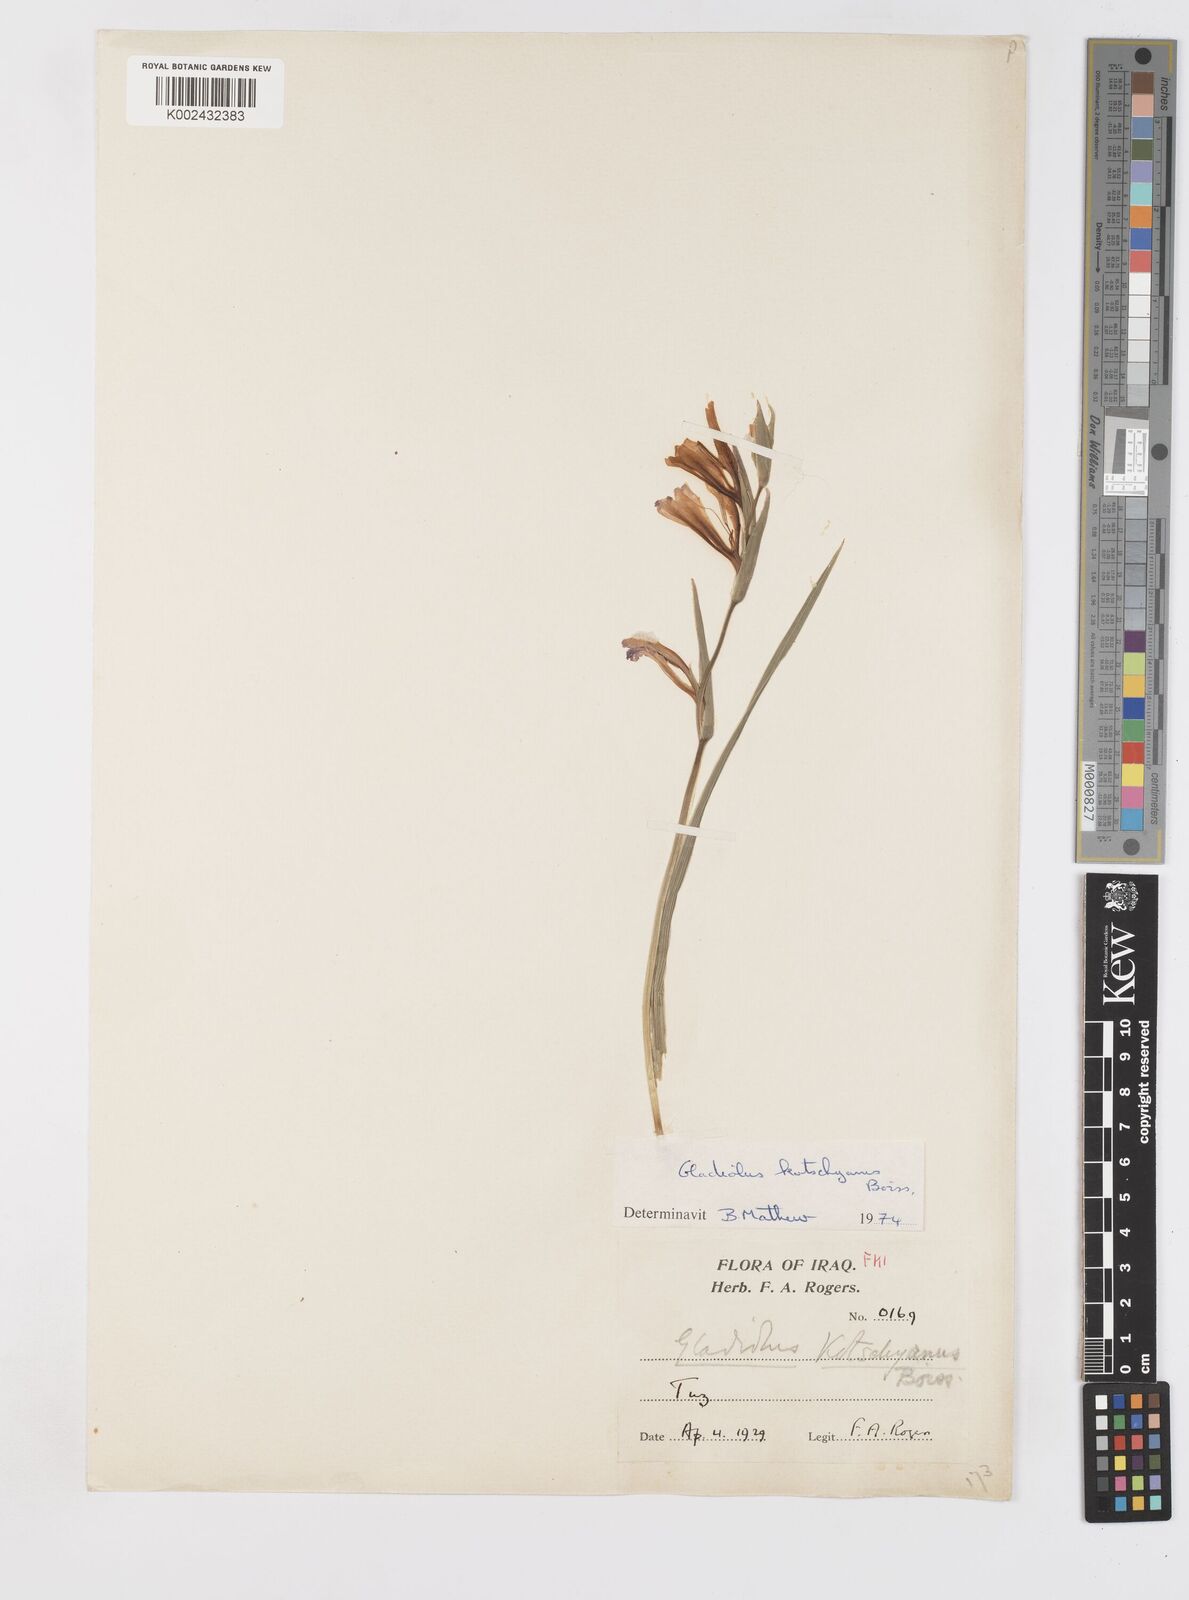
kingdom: Plantae
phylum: Tracheophyta
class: Liliopsida
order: Asparagales
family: Iridaceae
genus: Gladiolus
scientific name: Gladiolus kotschyanus
